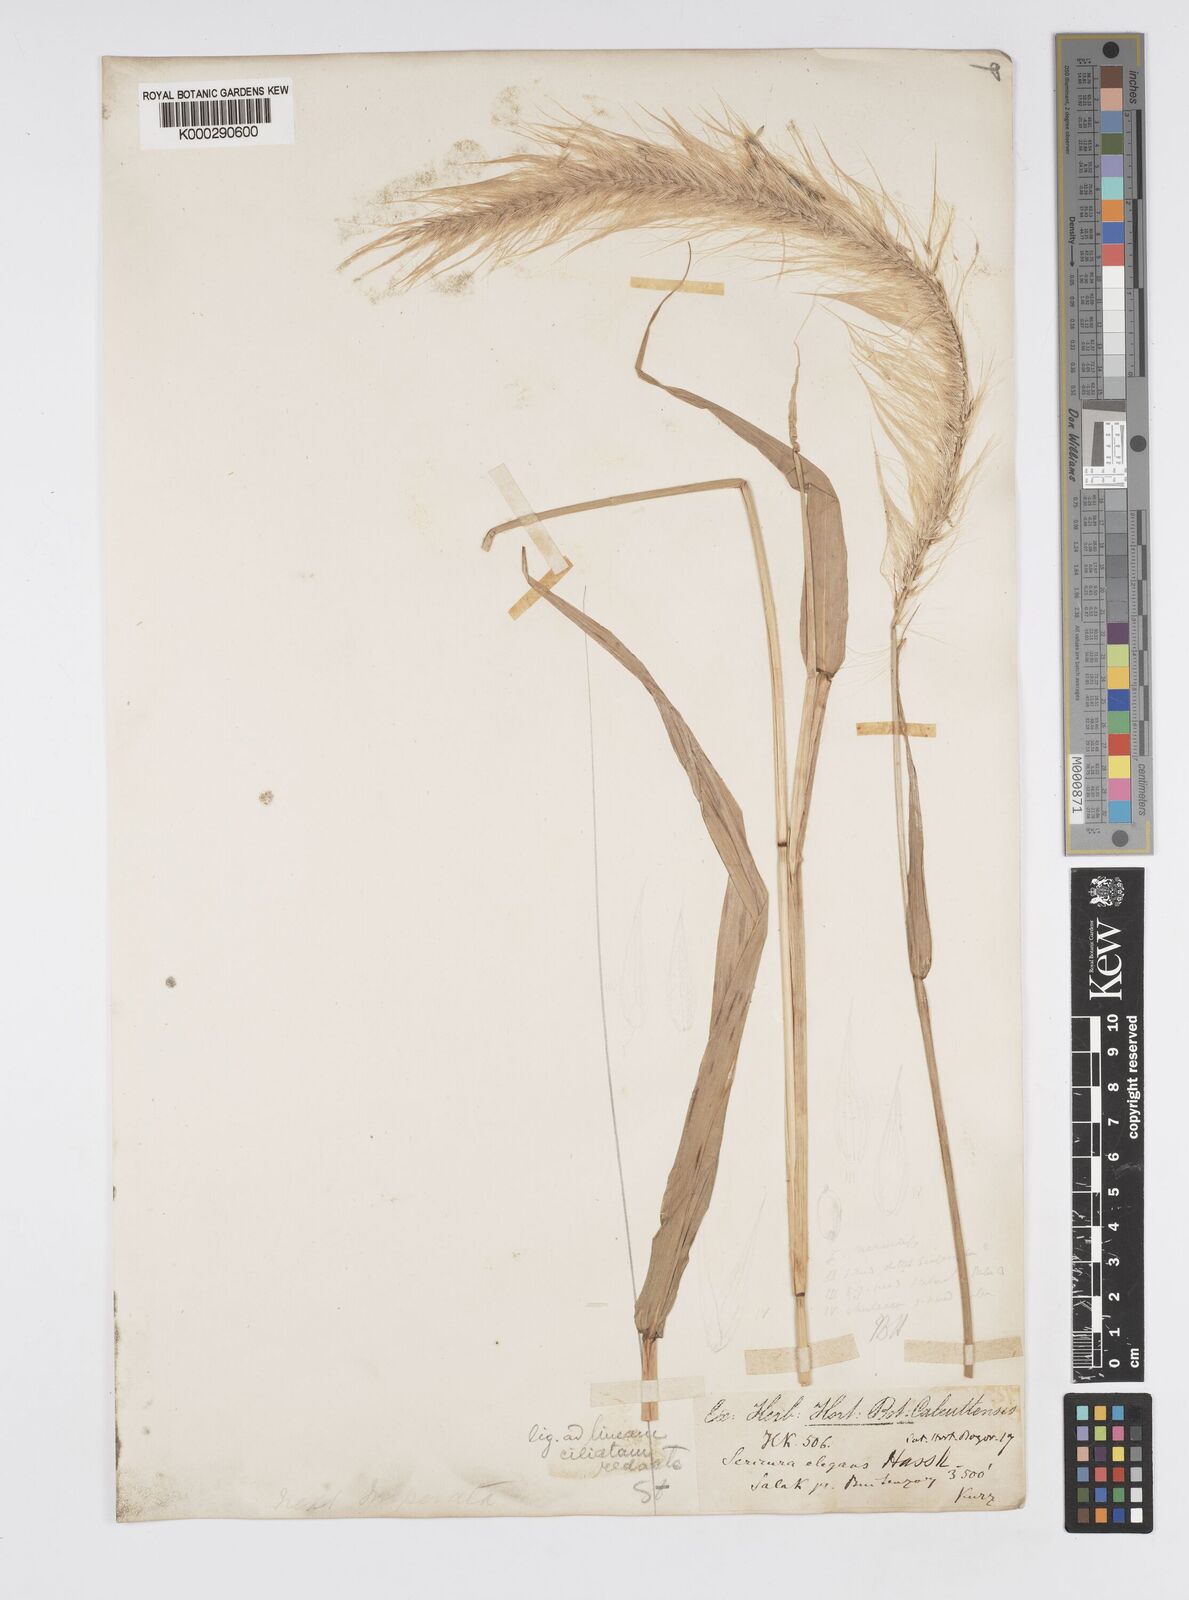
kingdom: Plantae
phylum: Tracheophyta
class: Liliopsida
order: Poales
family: Poaceae
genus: Cenchrus
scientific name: Cenchrus Pennisetum macrostachyum
